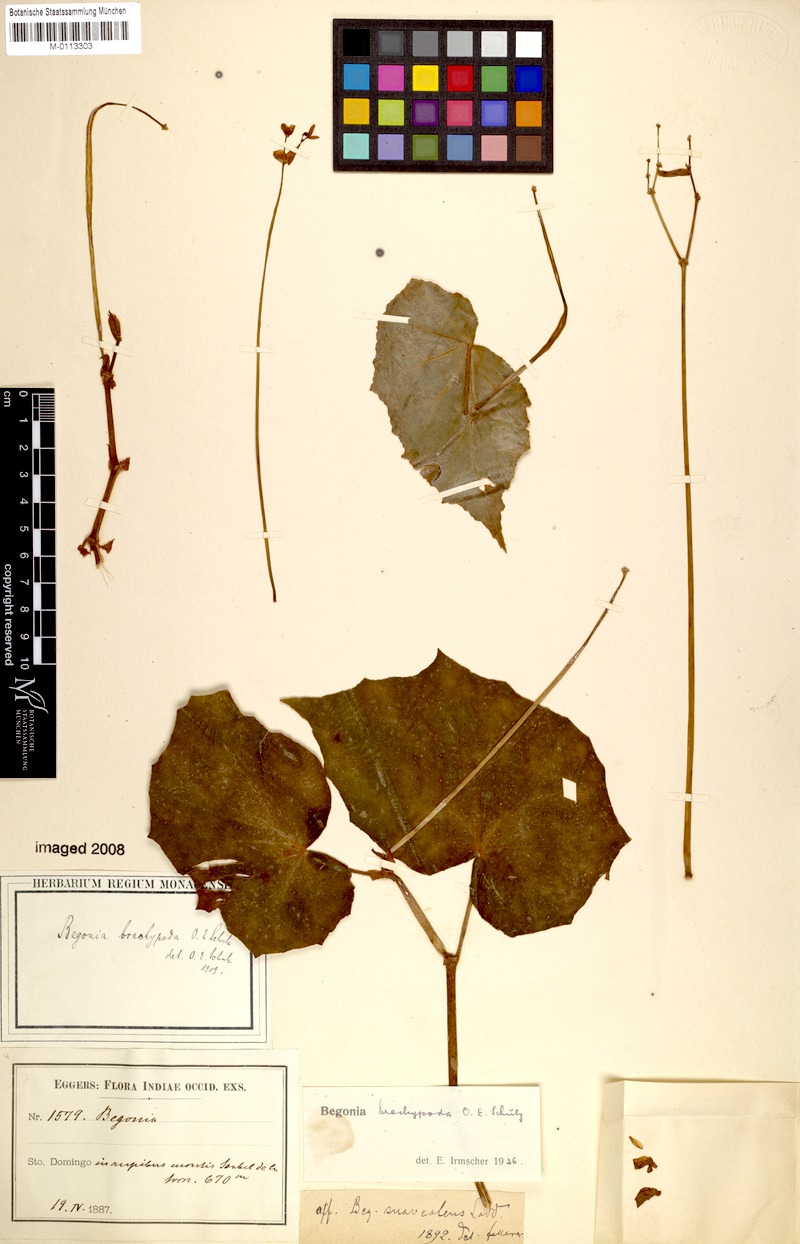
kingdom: Plantae
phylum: Tracheophyta
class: Magnoliopsida
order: Cucurbitales
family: Begoniaceae
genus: Begonia
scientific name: Begonia brachypoda
